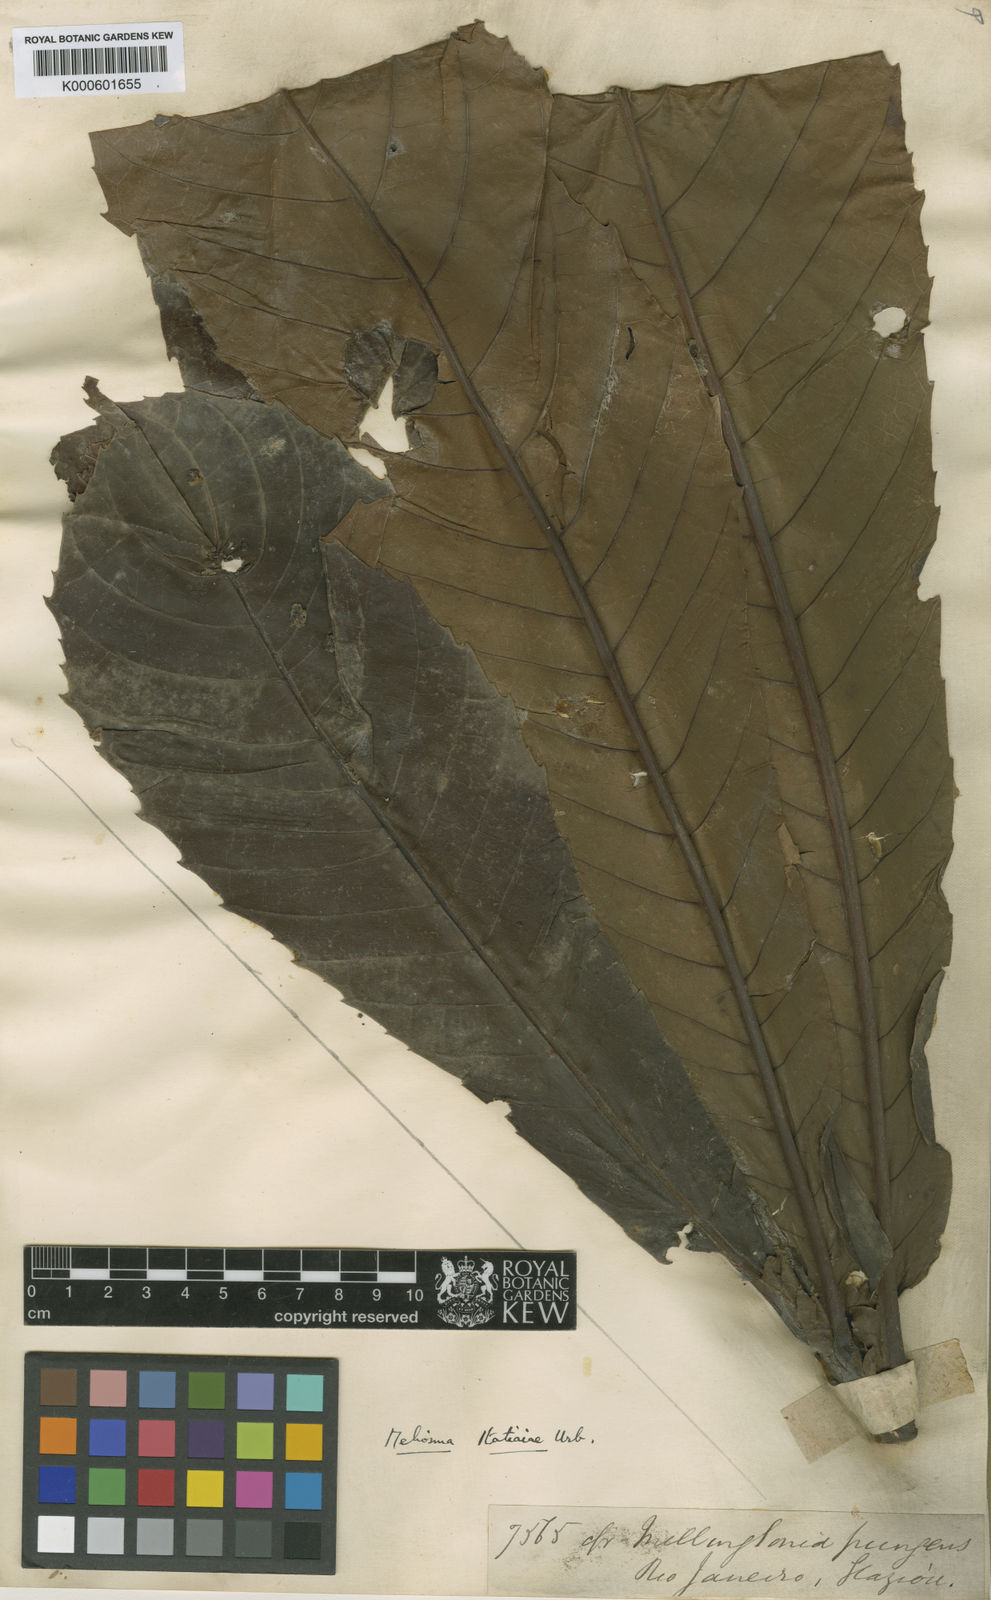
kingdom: Plantae
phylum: Tracheophyta
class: Magnoliopsida
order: Proteales
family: Sabiaceae
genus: Meliosma
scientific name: Meliosma itatiaiae
